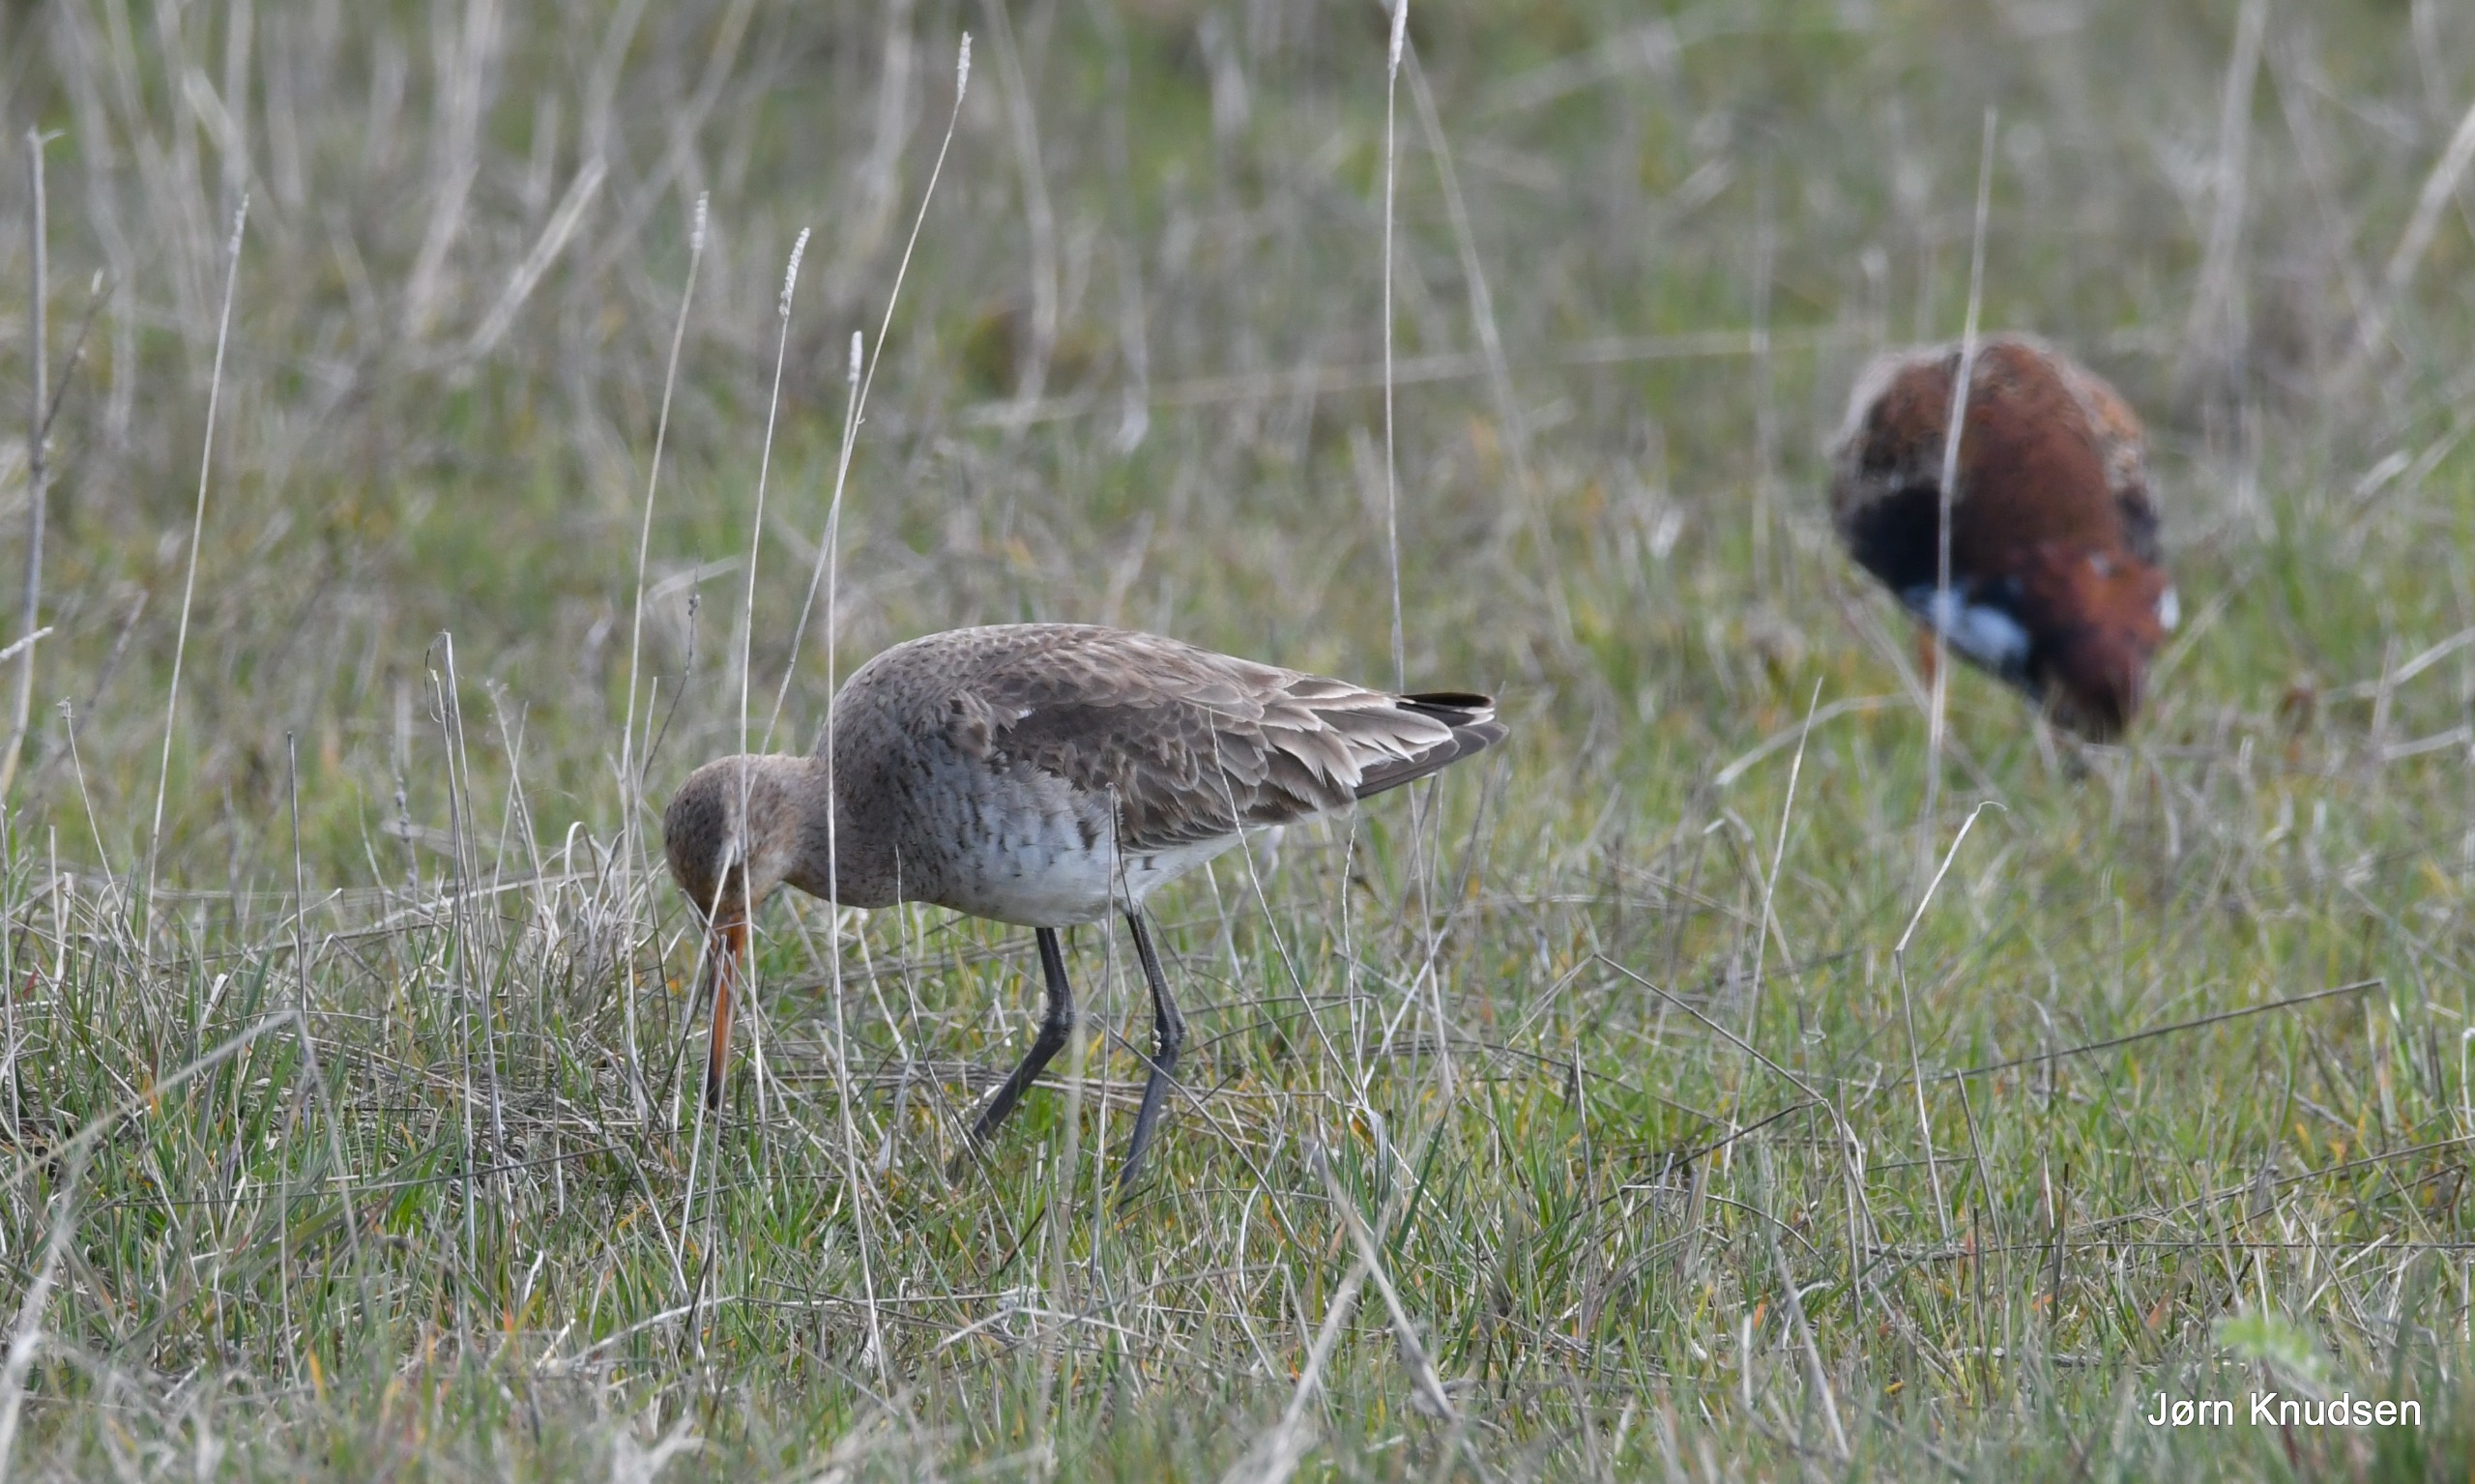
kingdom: Animalia
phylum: Chordata
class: Aves
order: Charadriiformes
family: Scolopacidae
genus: Calidris
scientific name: Calidris pugnax
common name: Brushane
